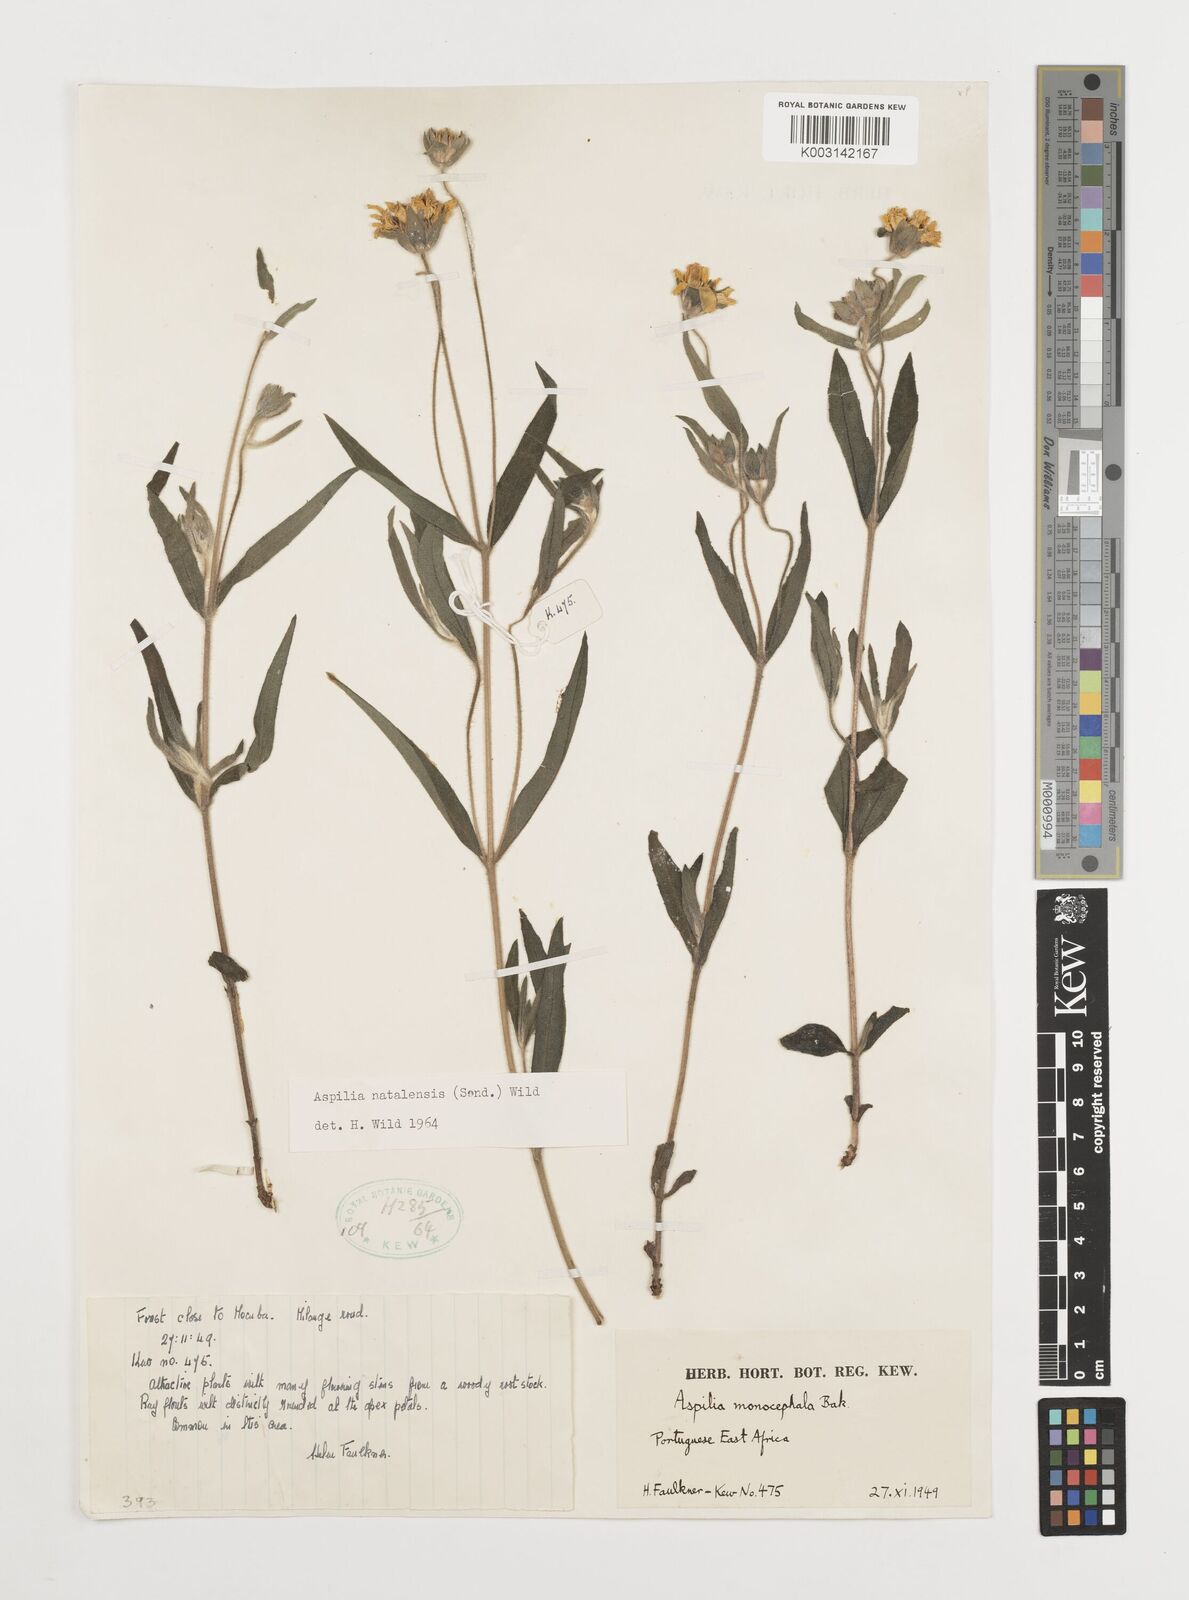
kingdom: Plantae
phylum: Tracheophyta
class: Magnoliopsida
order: Asterales
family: Asteraceae
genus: Aspilia
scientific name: Aspilia natalensis
